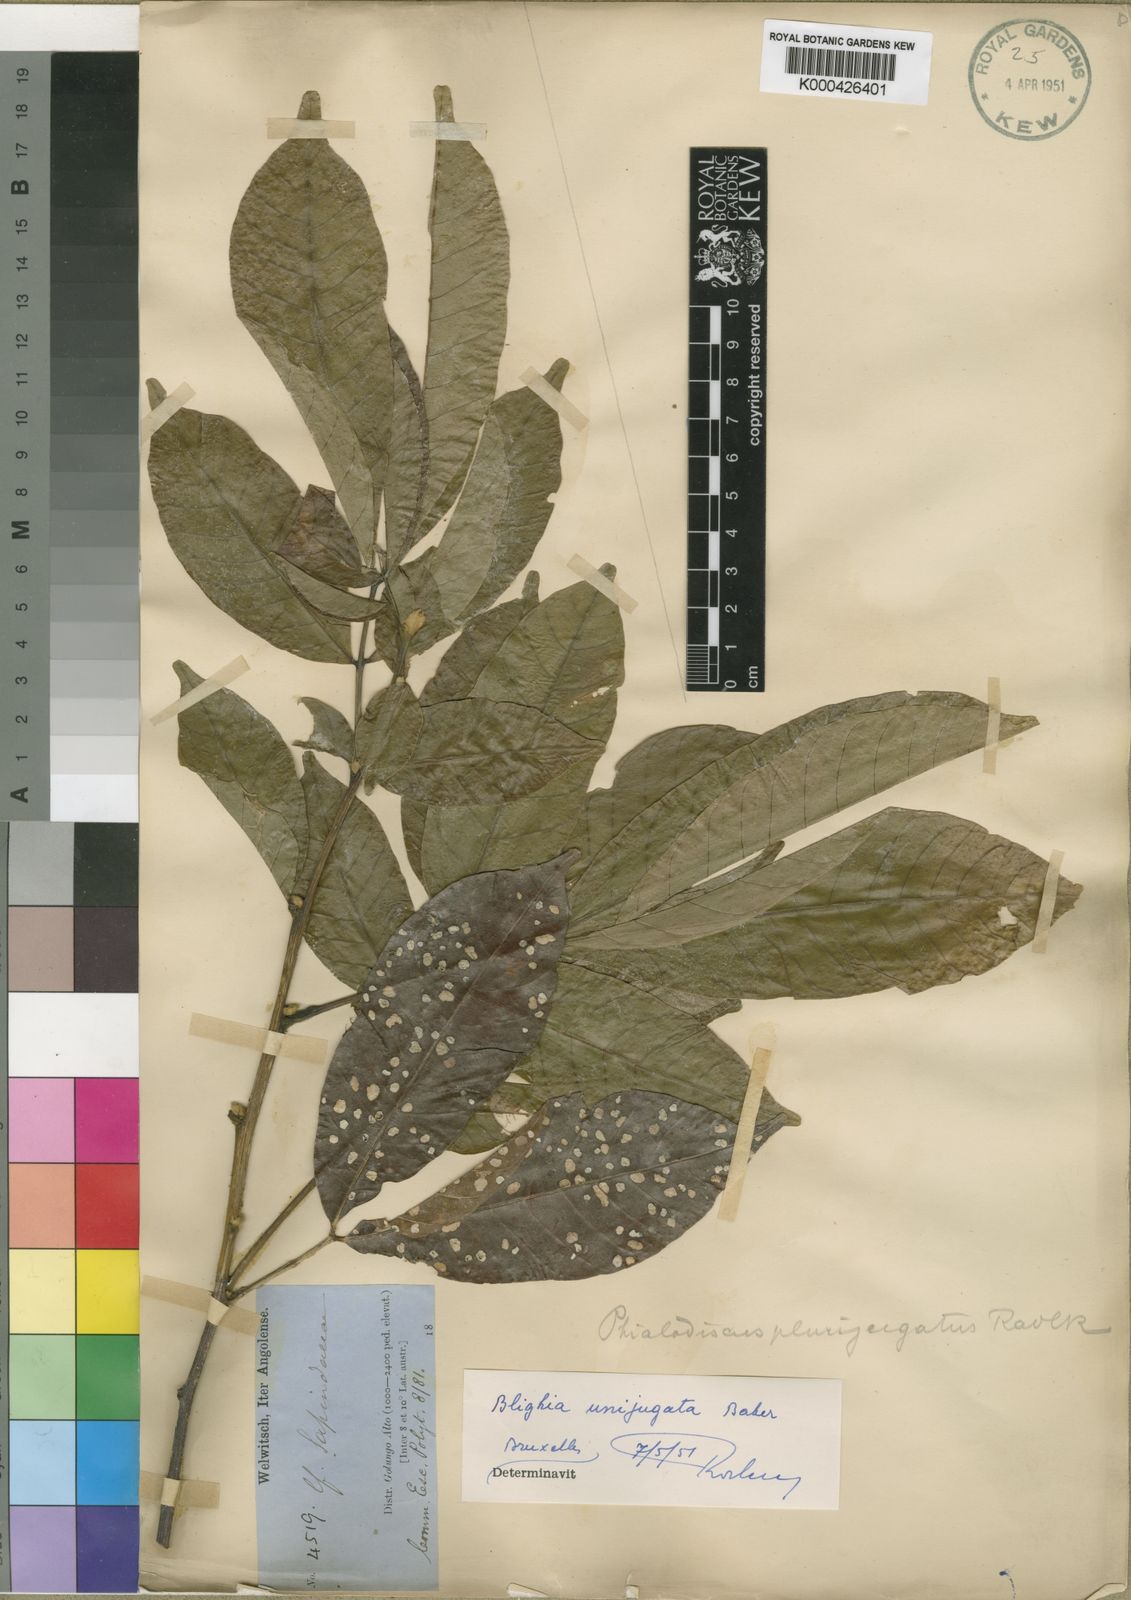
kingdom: Plantae
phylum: Tracheophyta
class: Magnoliopsida
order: Sapindales
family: Sapindaceae
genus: Blighia
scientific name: Blighia unijugata
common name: Triangle tops
